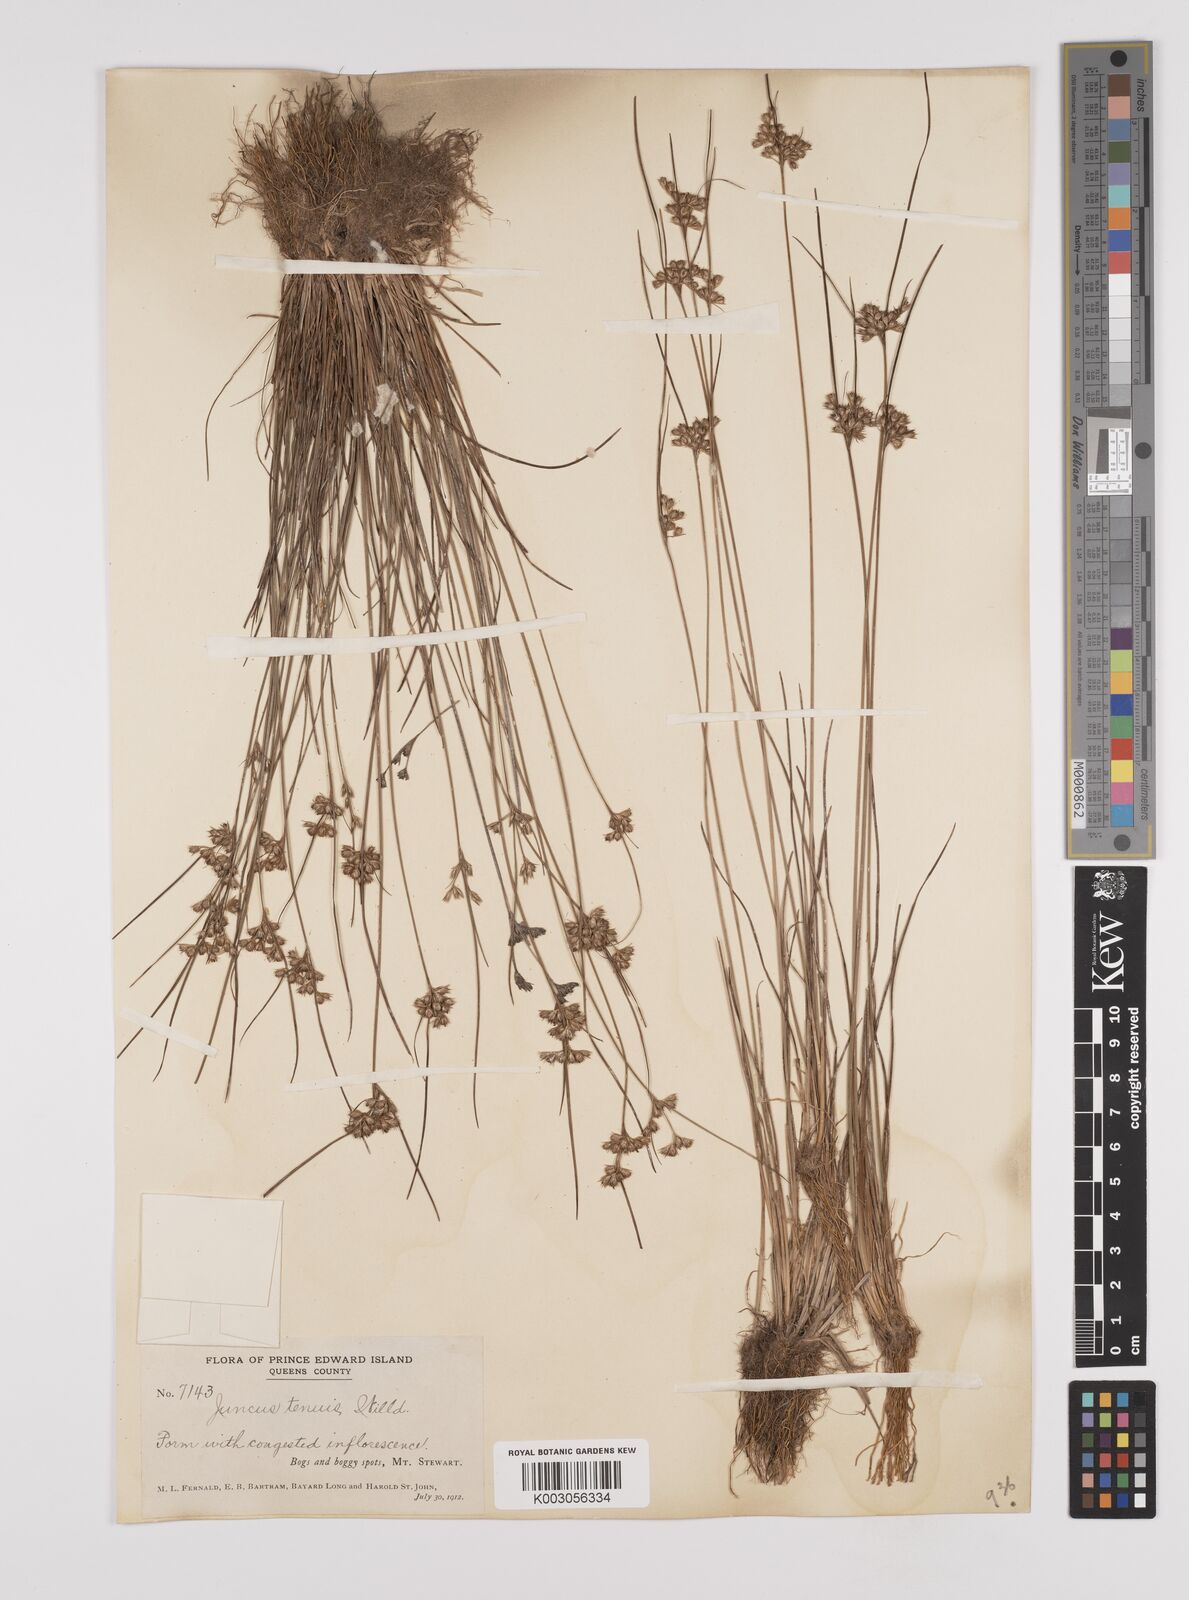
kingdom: Plantae
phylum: Tracheophyta
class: Liliopsida
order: Poales
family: Juncaceae
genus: Juncus
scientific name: Juncus tenuis
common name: Slender rush
